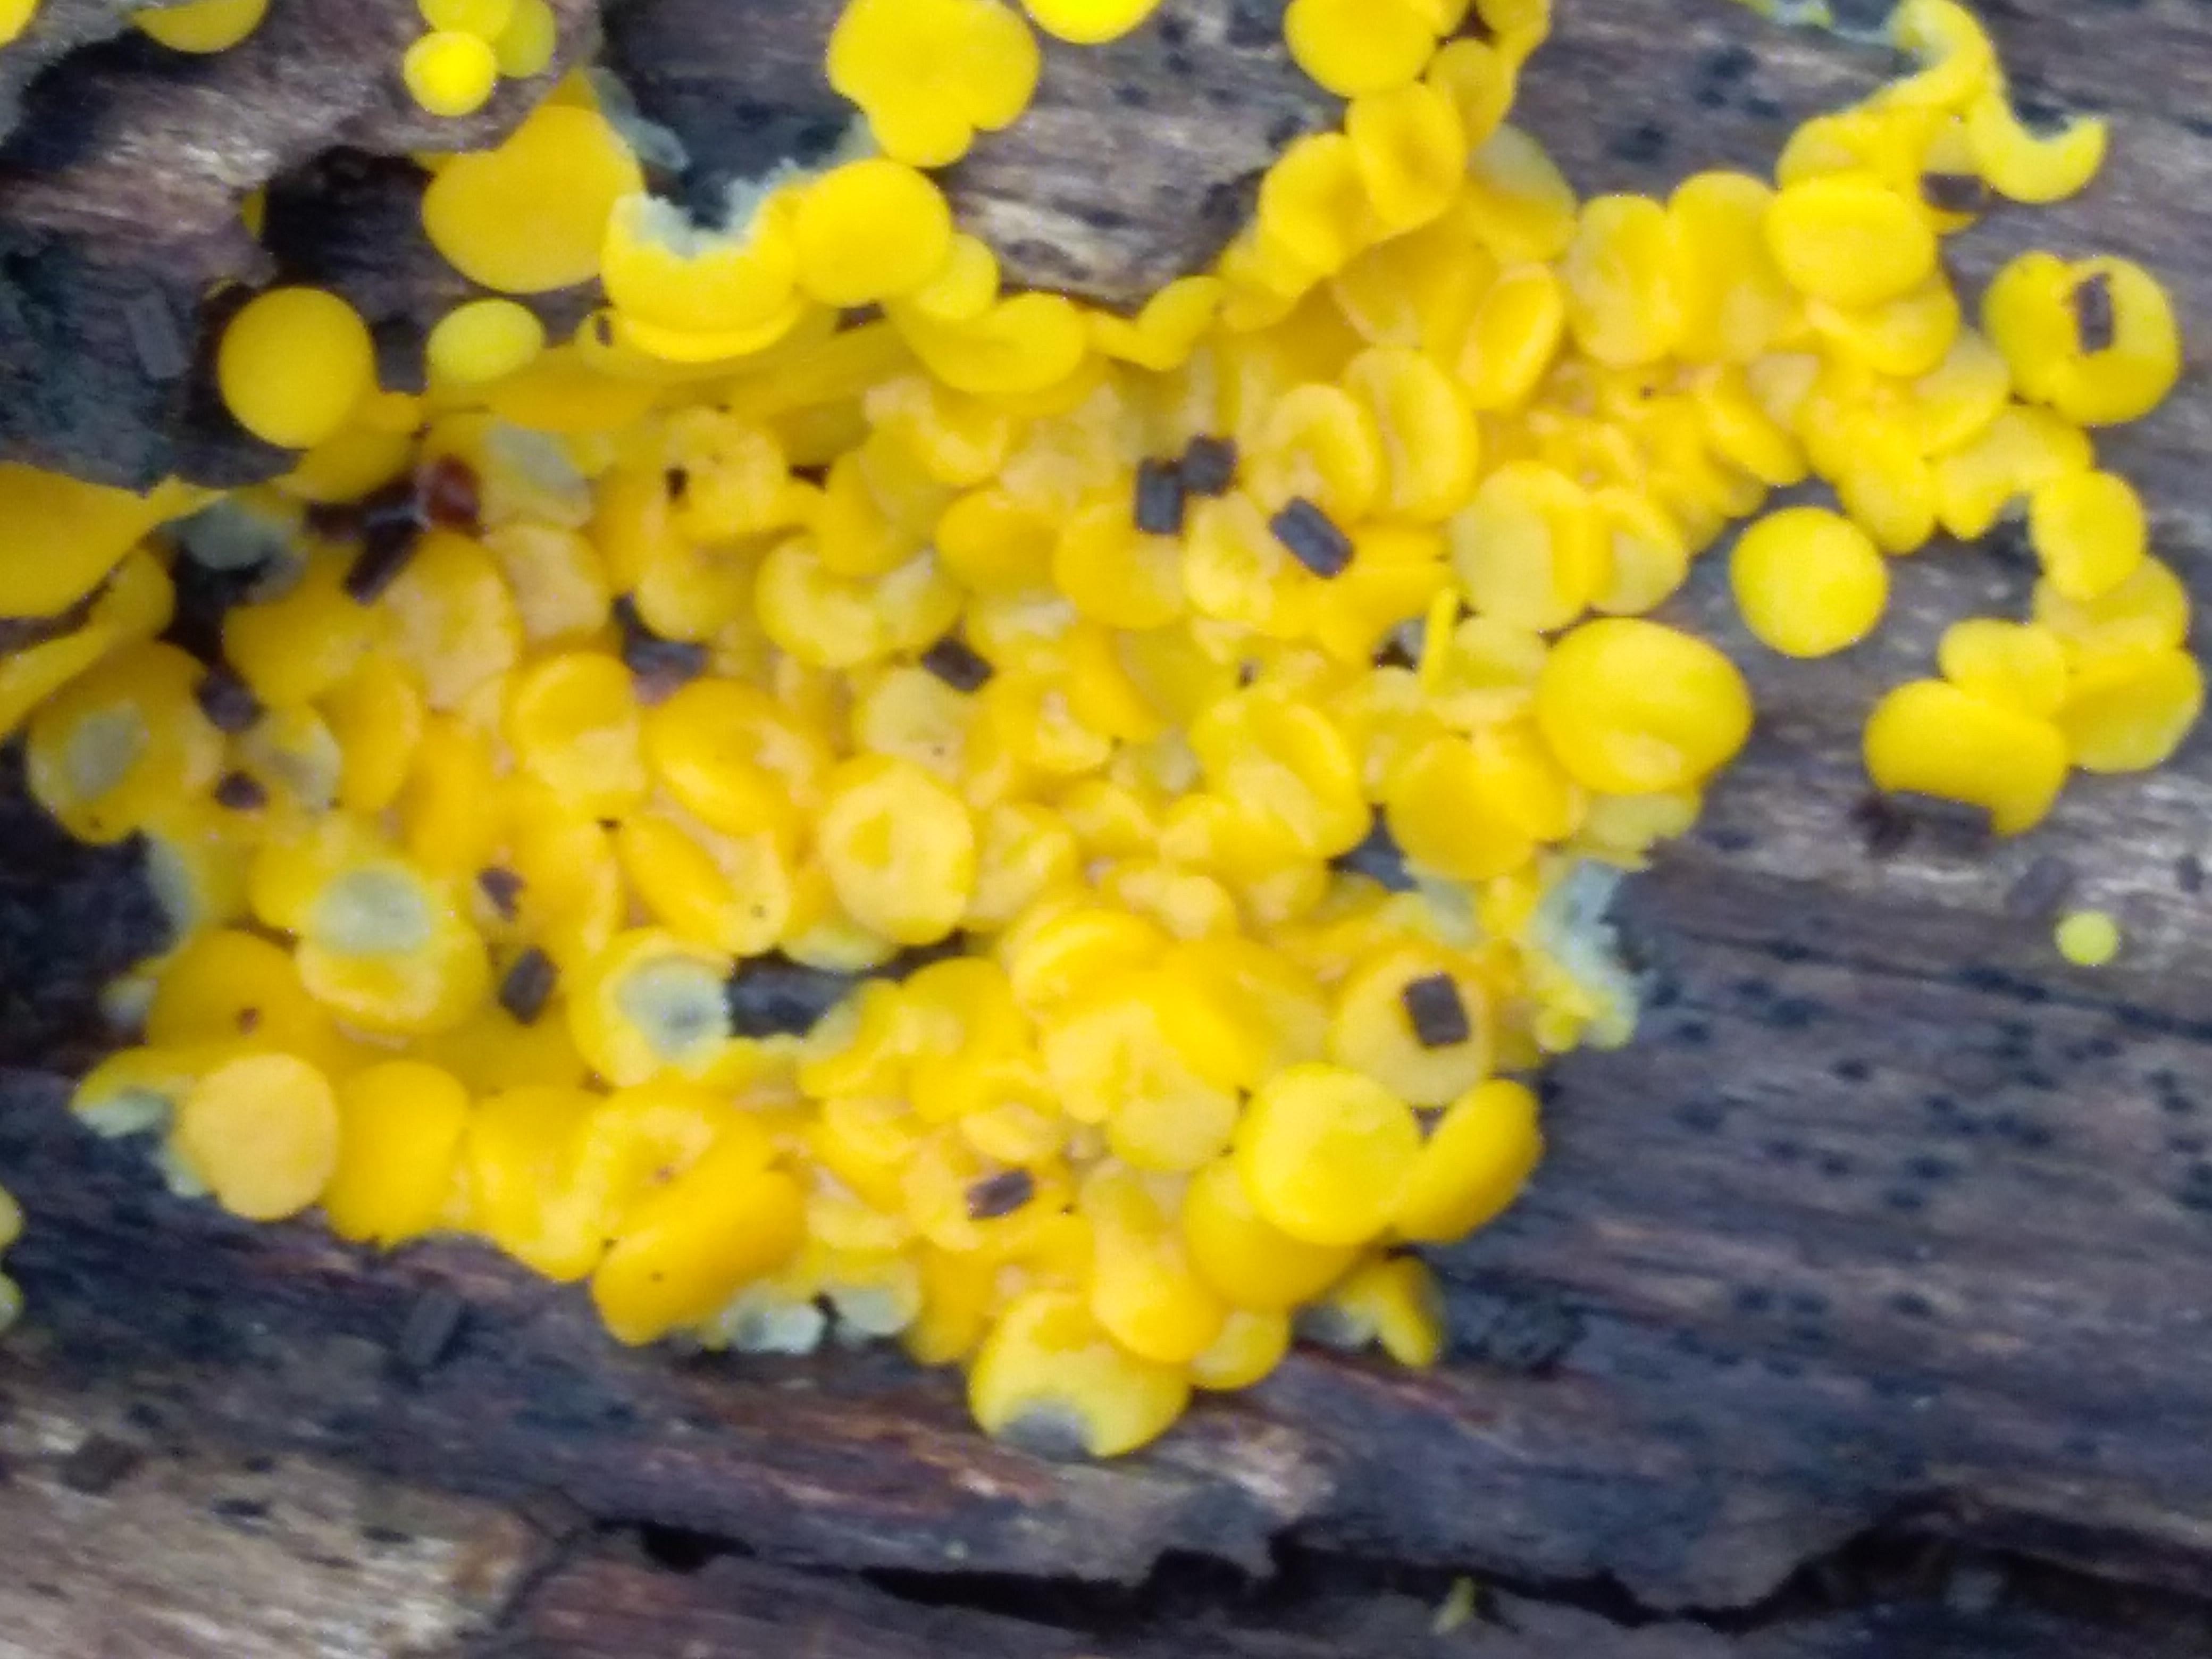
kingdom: Fungi
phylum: Ascomycota
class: Leotiomycetes
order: Helotiales
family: Pezizellaceae
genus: Calycina
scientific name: Calycina citrina
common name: almindelig gulskive
